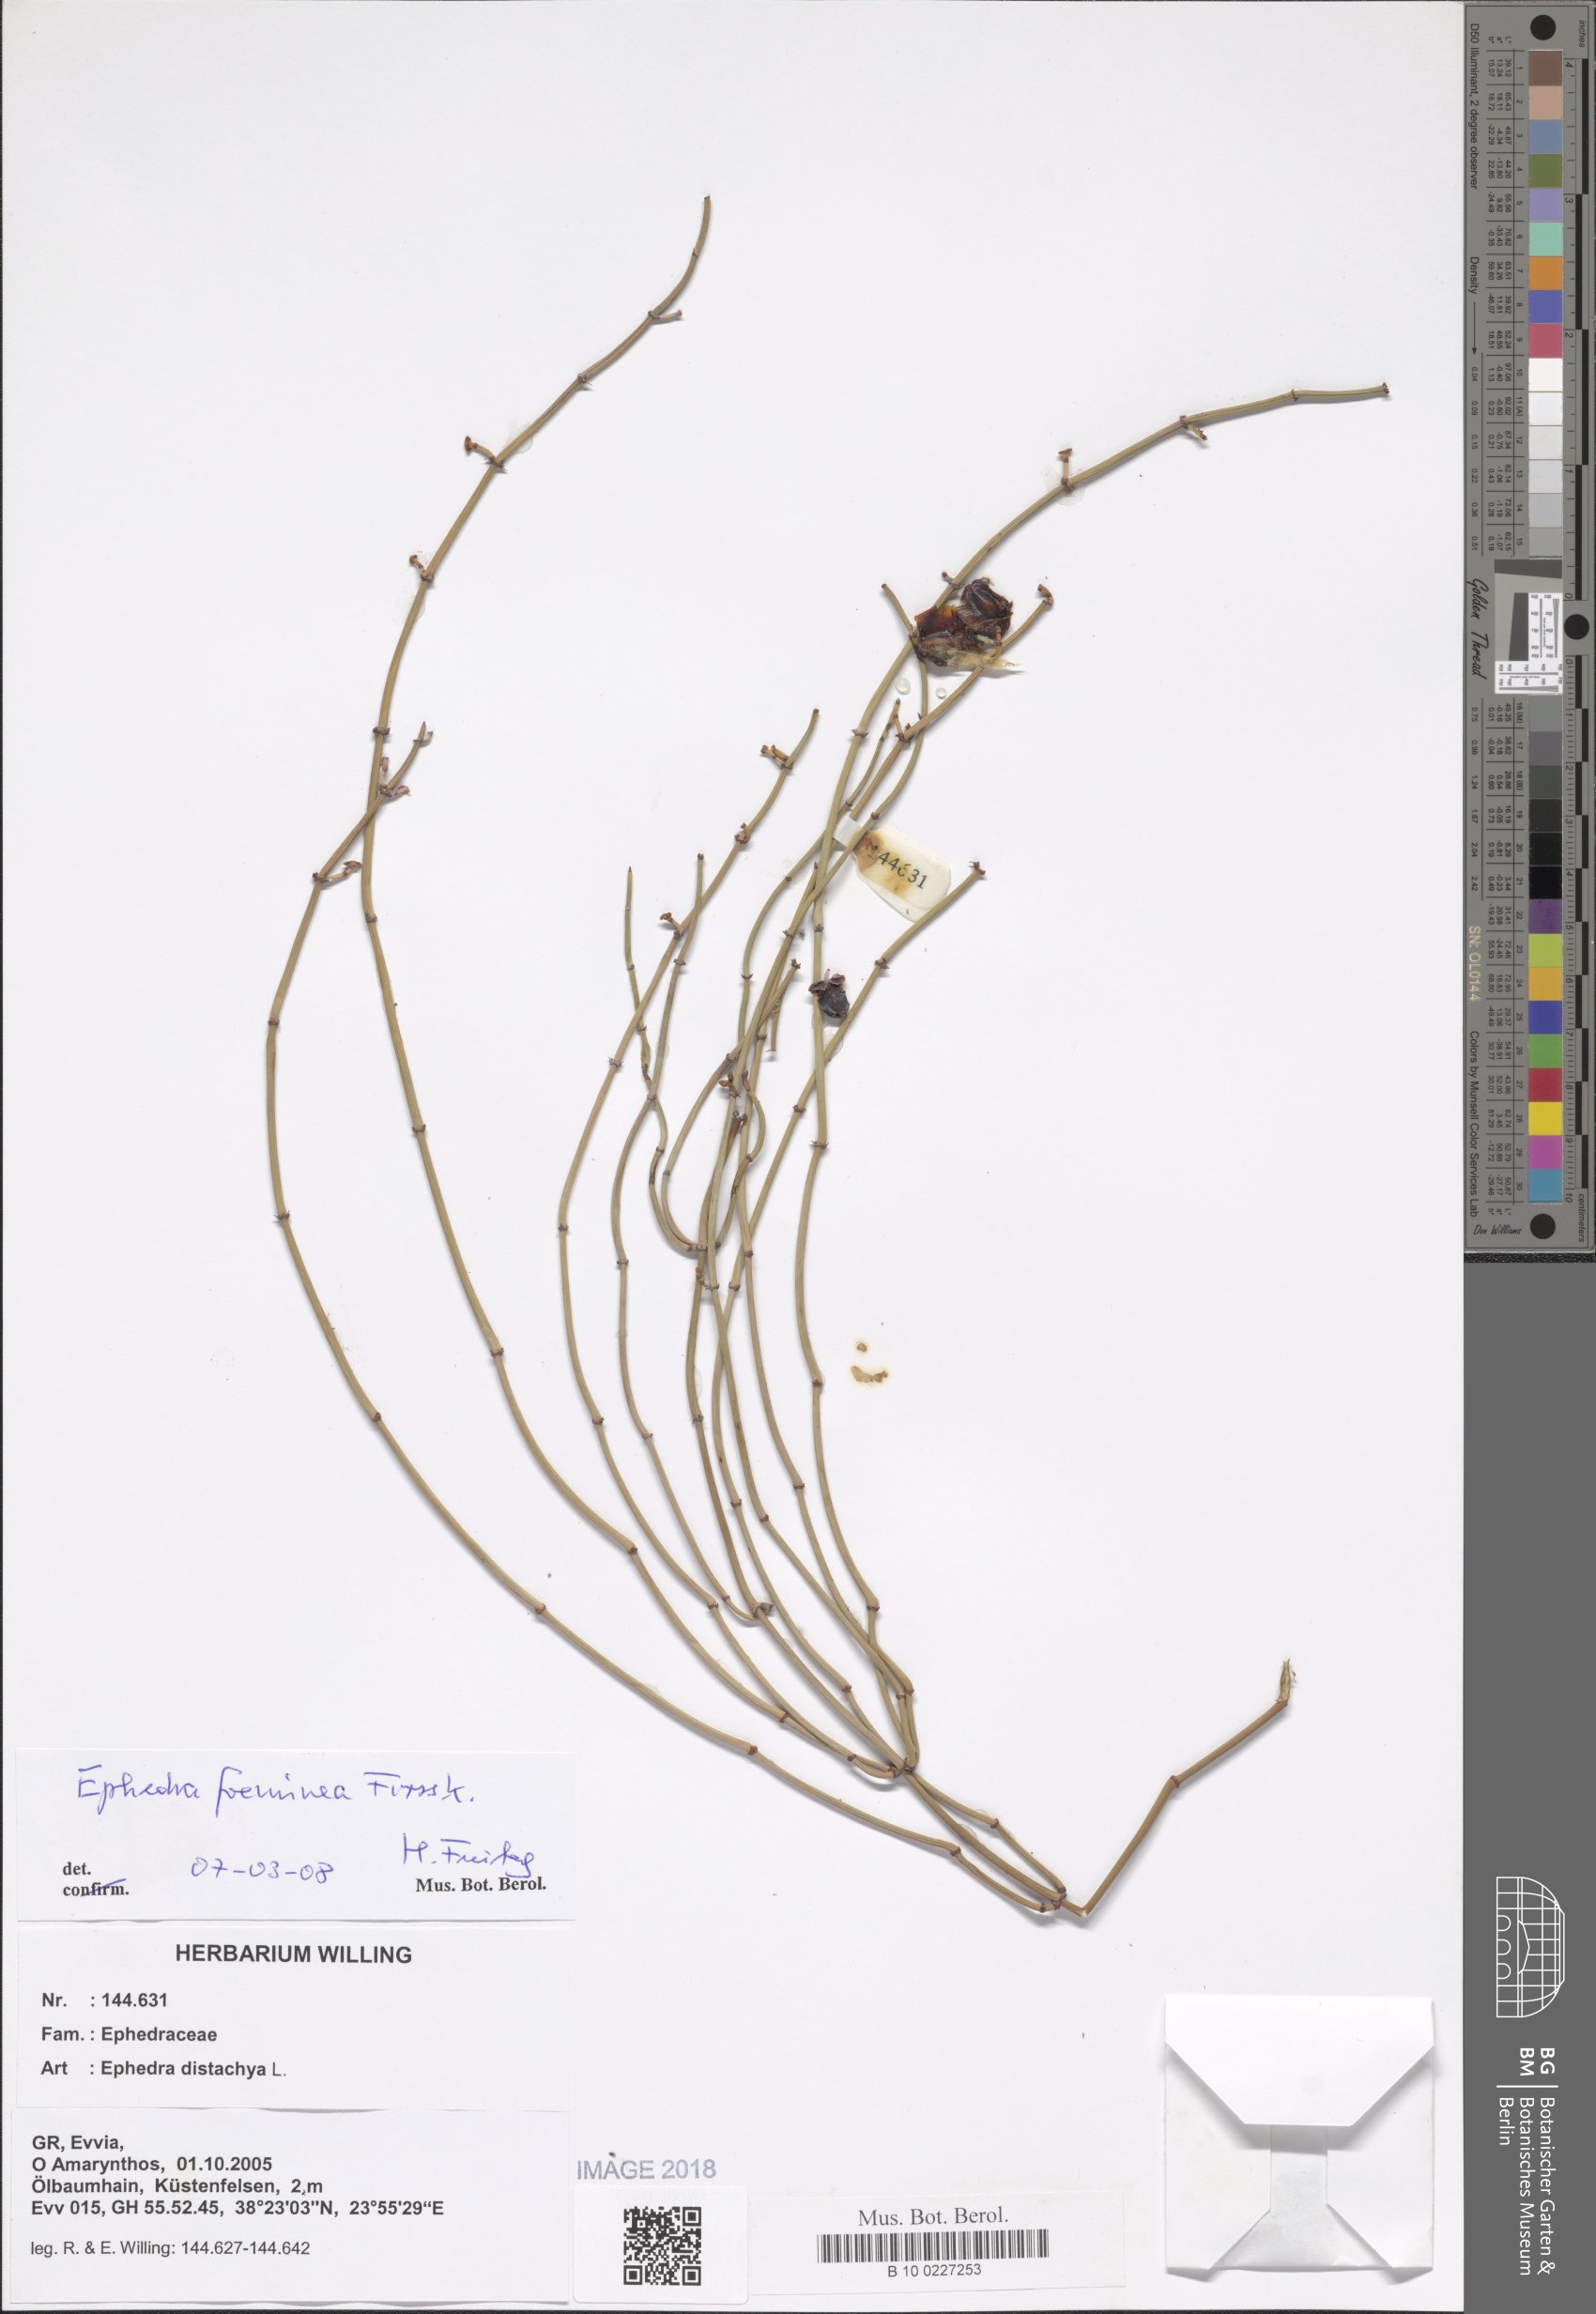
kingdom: Plantae
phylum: Tracheophyta
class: Magnoliopsida
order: Caryophyllales
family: Caryophyllaceae
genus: Silene
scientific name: Silene congesta
